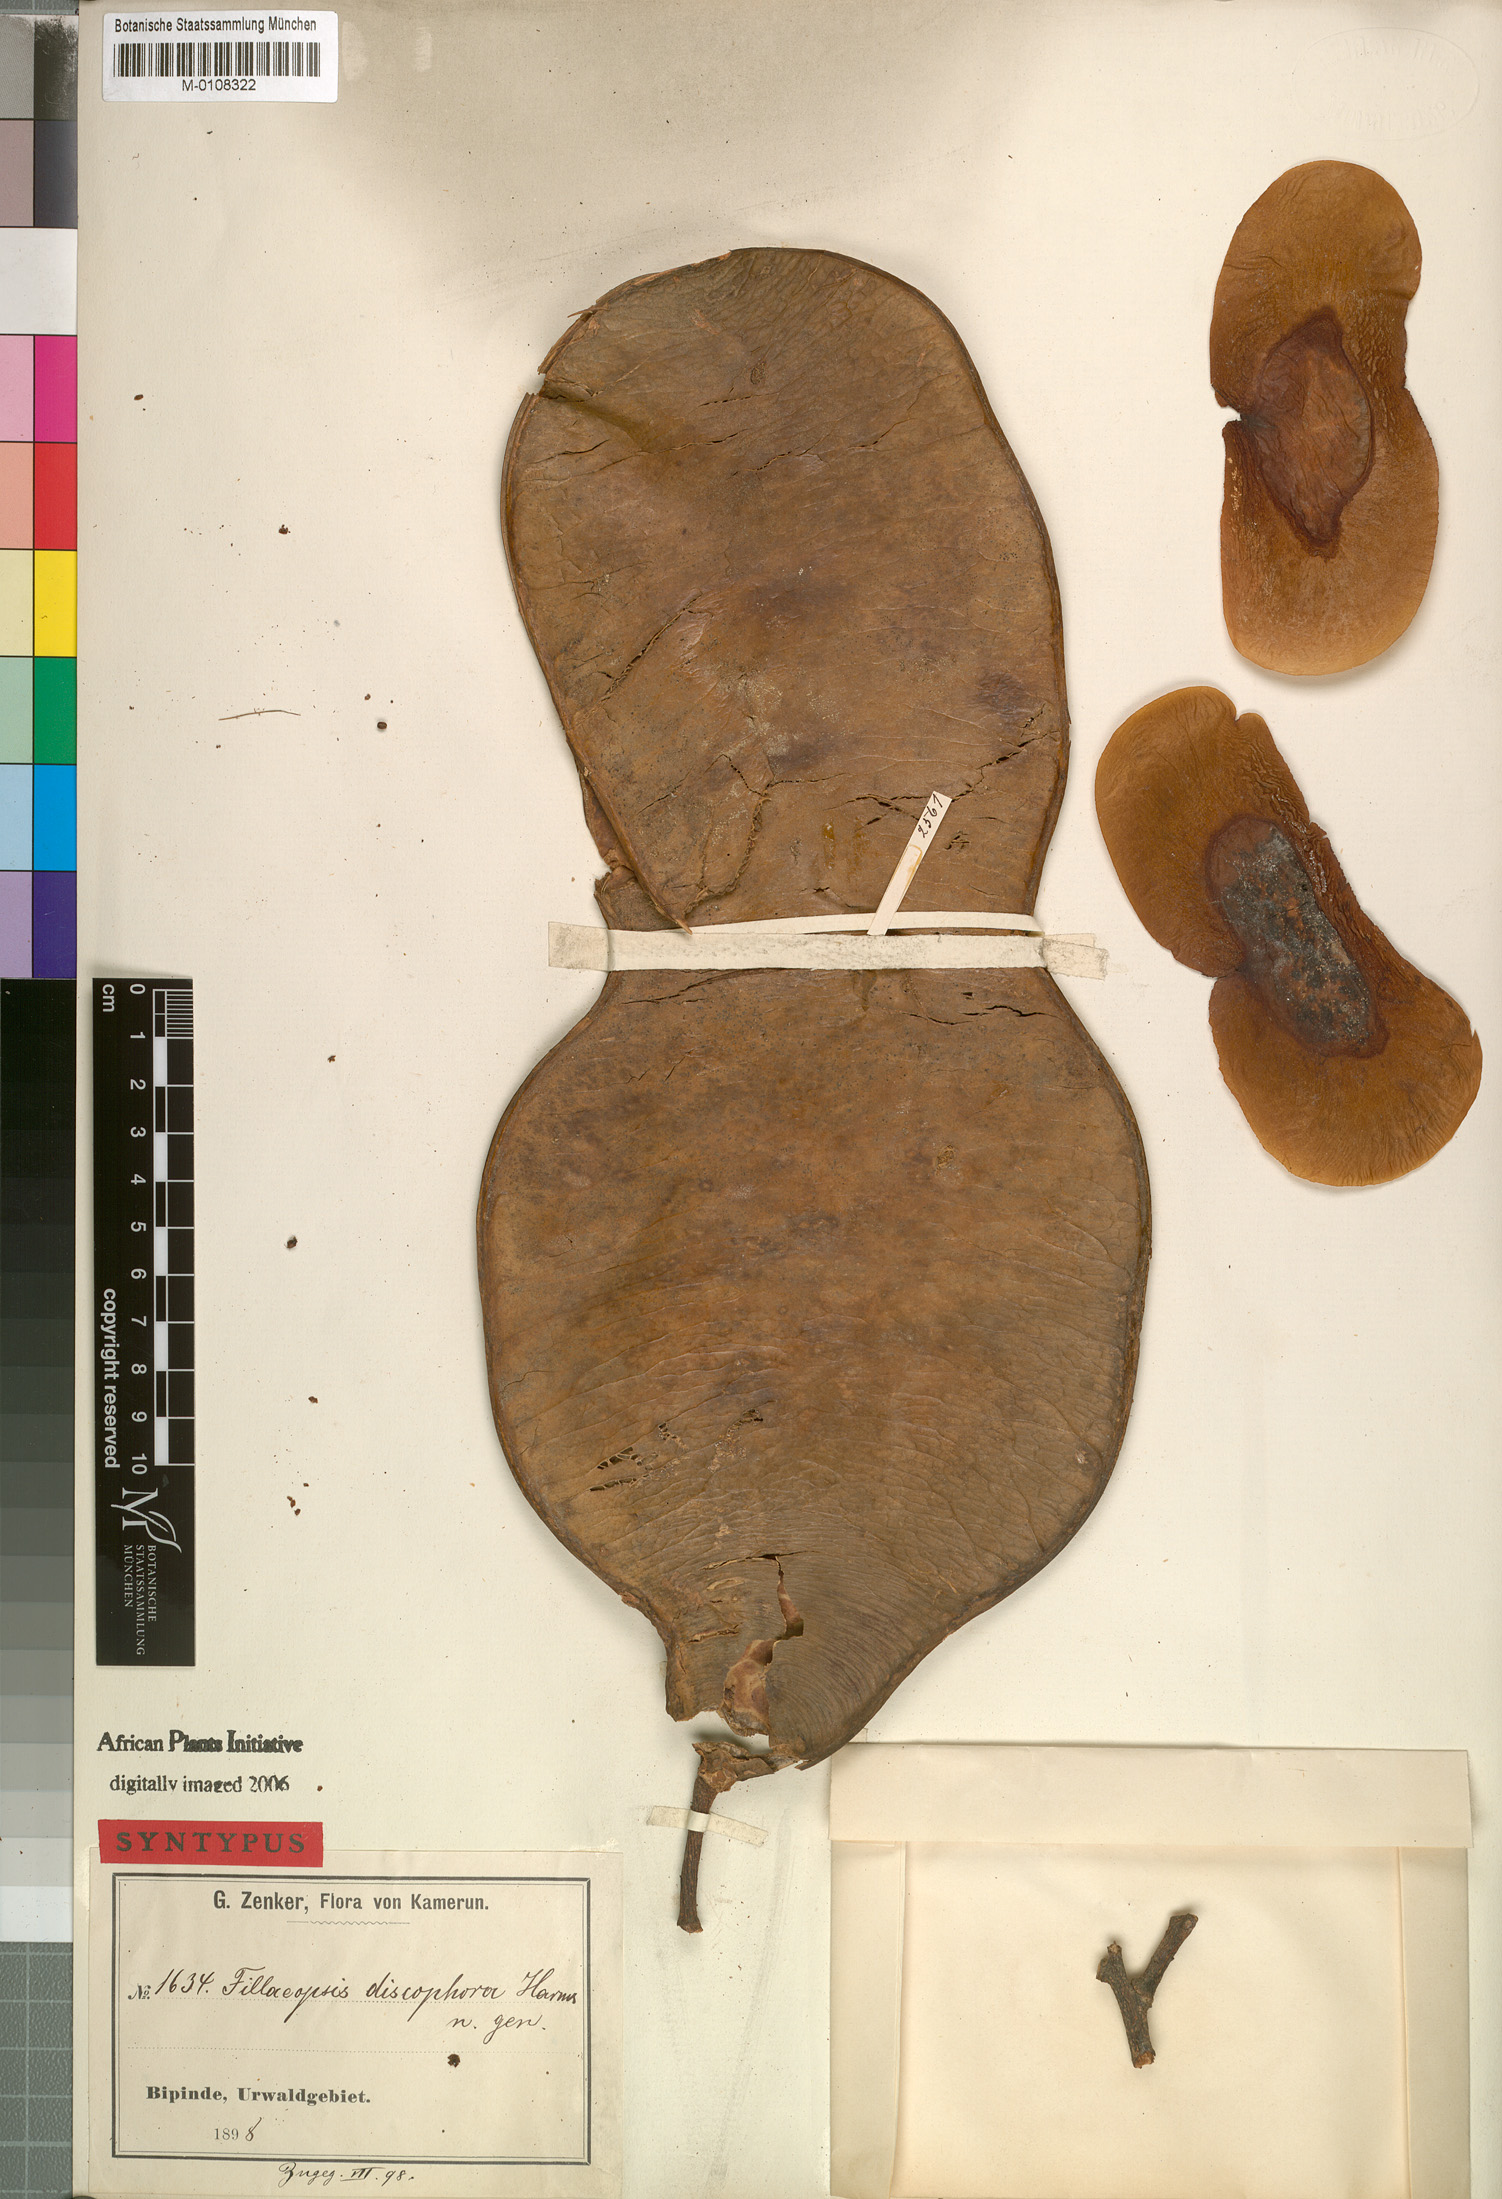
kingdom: Plantae
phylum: Tracheophyta
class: Magnoliopsida
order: Fabales
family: Fabaceae
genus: Fillaeopsis
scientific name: Fillaeopsis discophora
